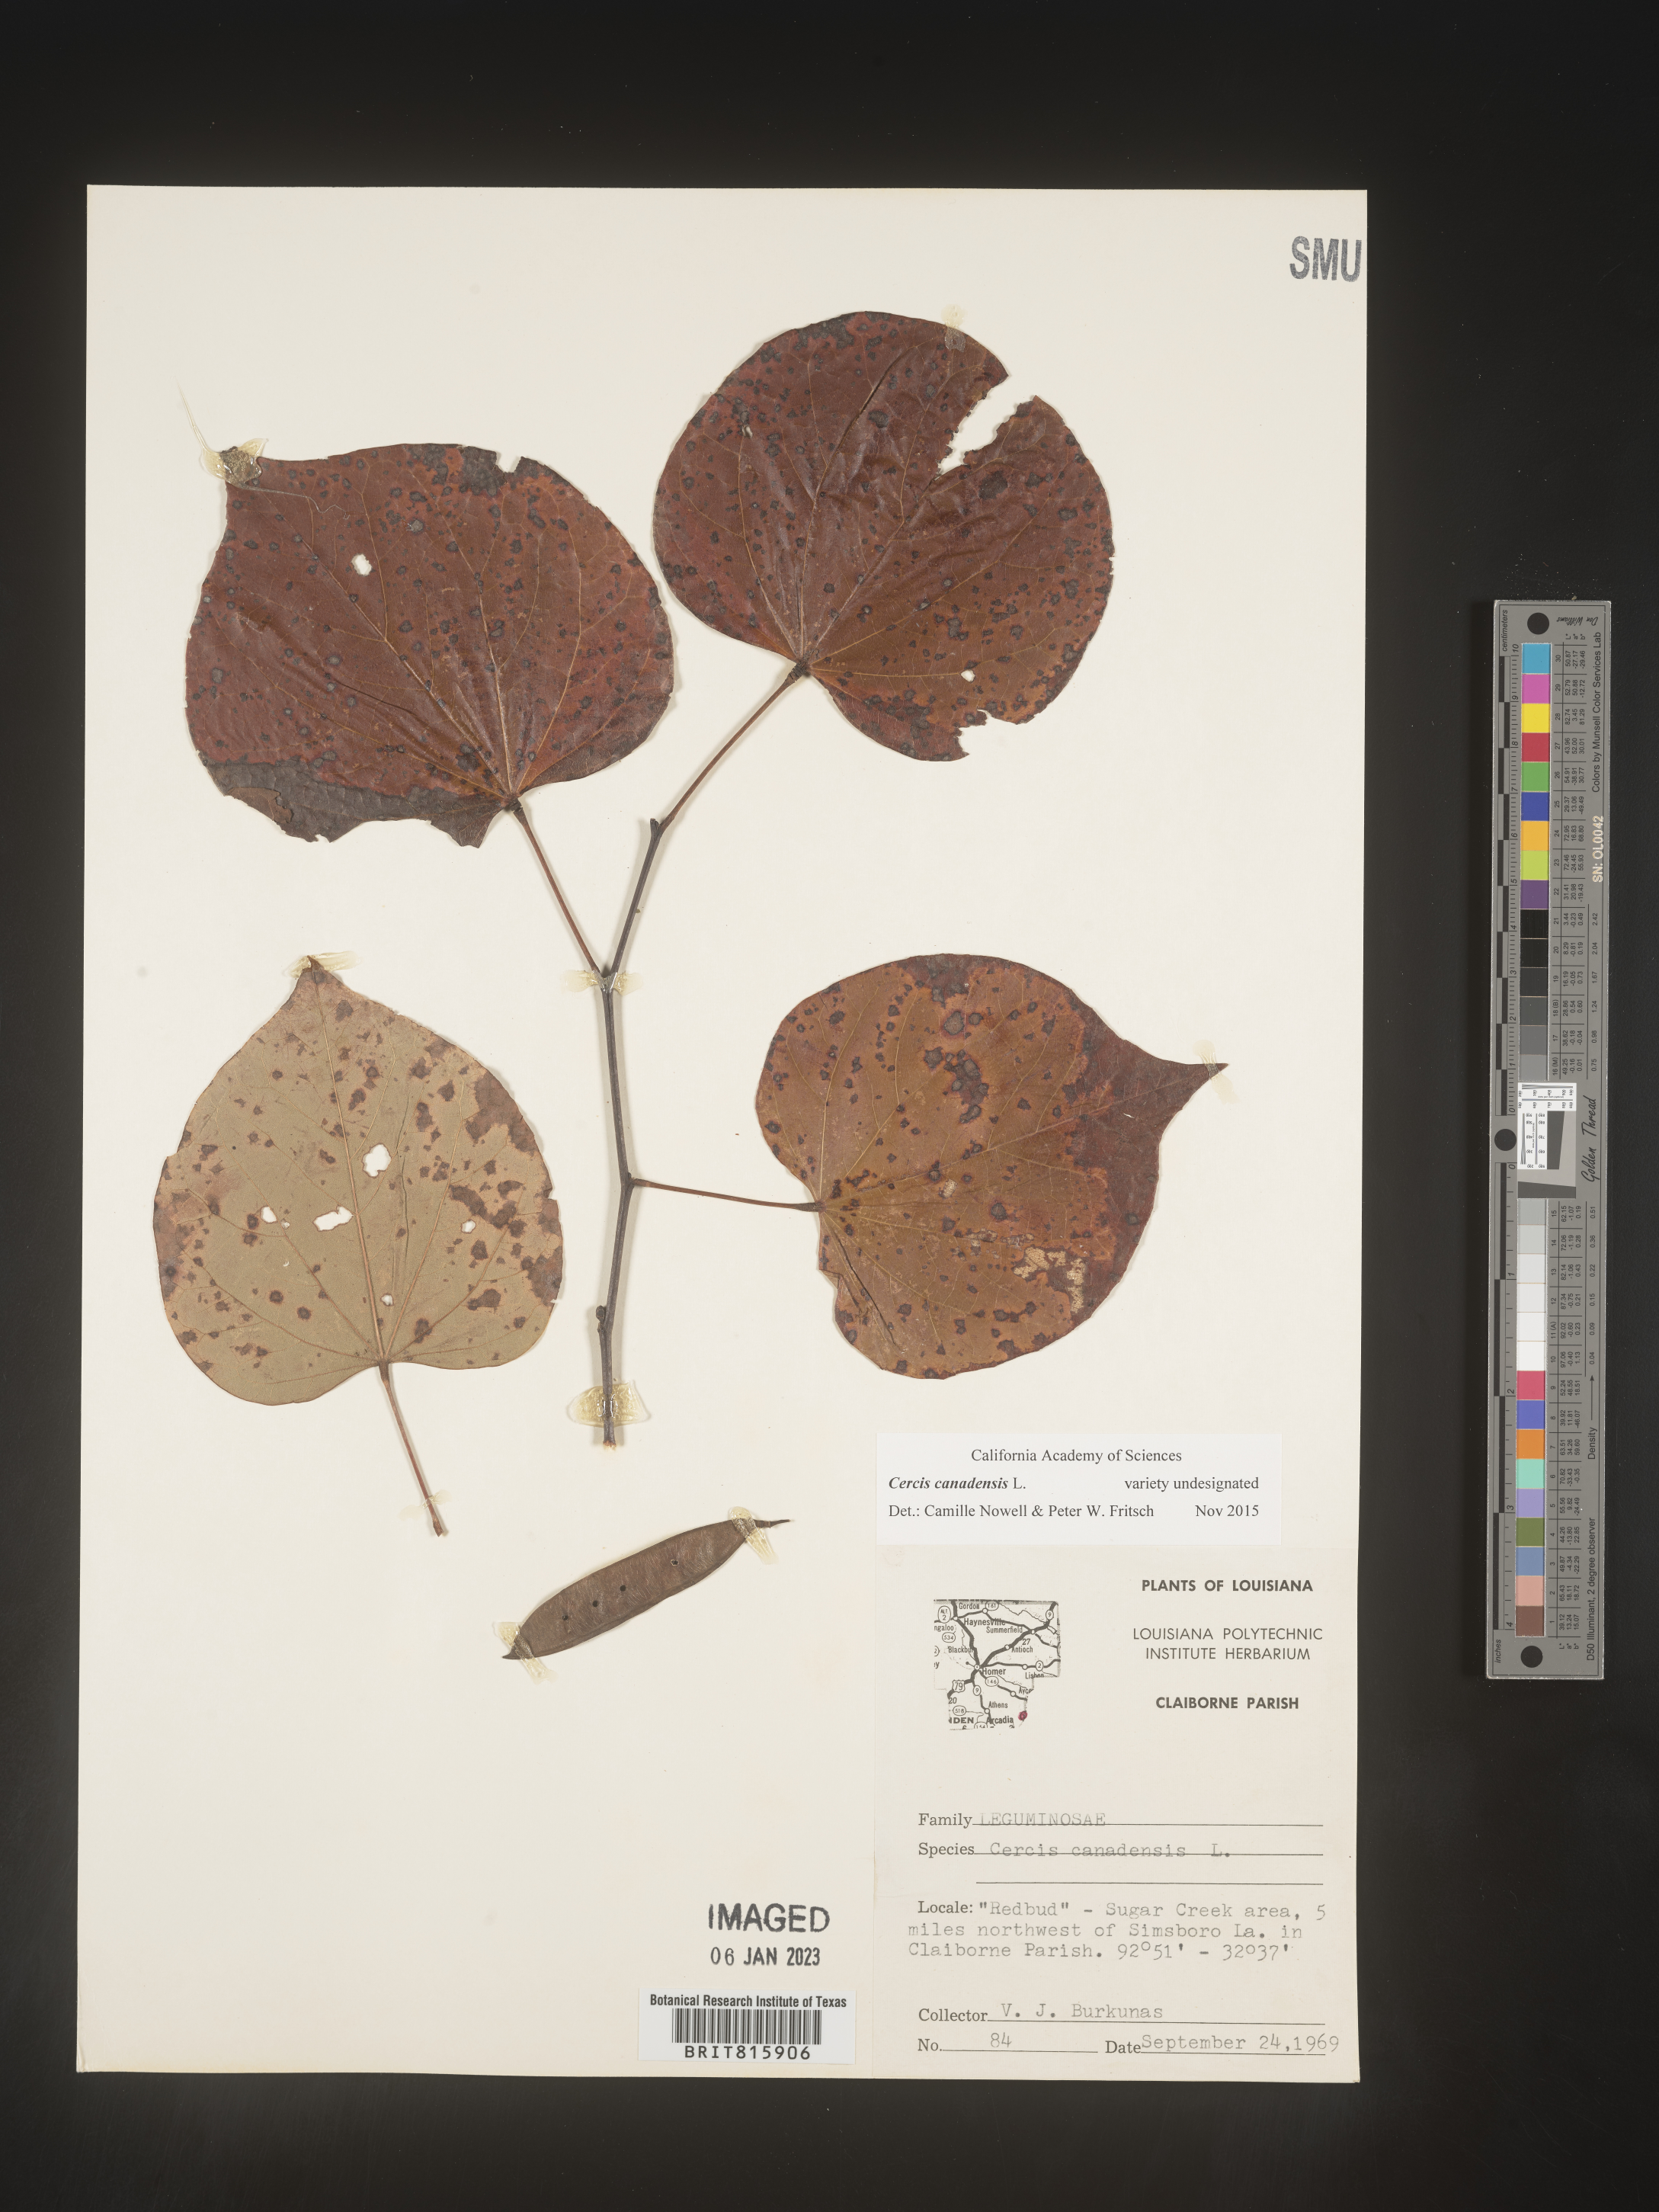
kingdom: Plantae
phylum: Tracheophyta
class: Magnoliopsida
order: Fabales
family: Fabaceae
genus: Cercis
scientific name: Cercis canadensis
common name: Eastern redbud
